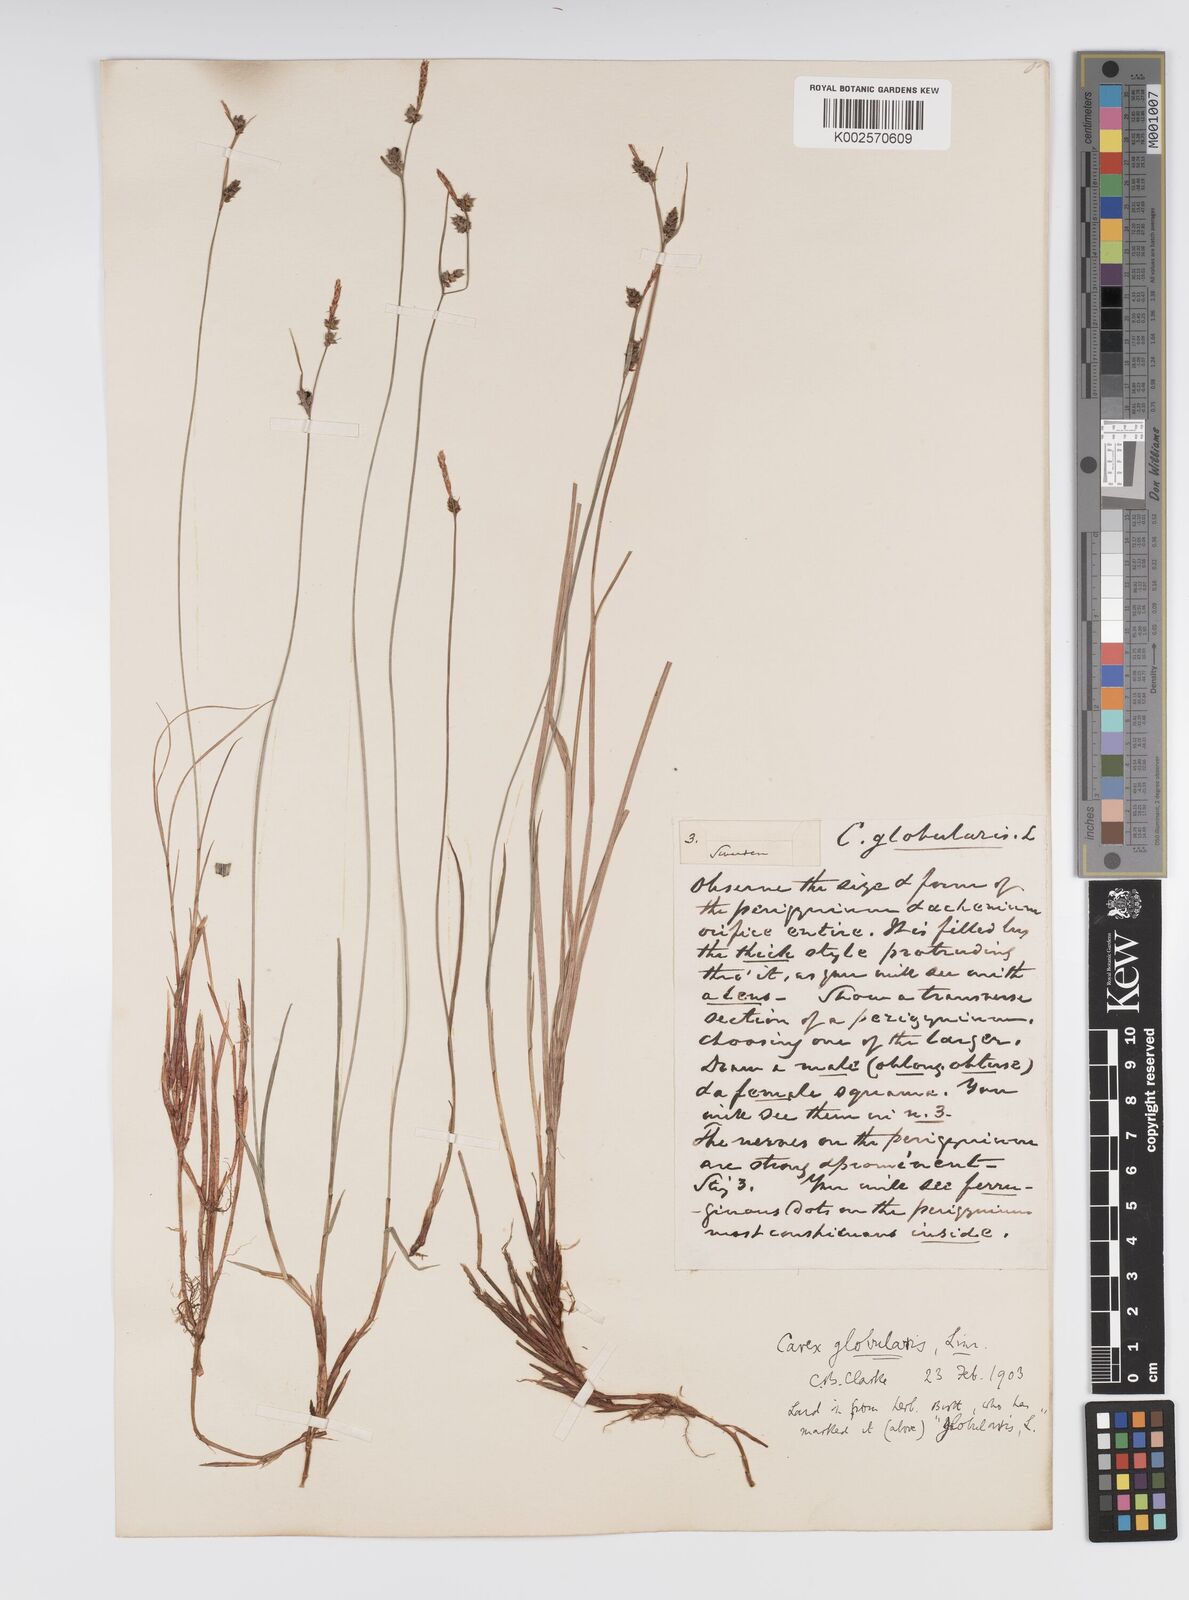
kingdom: Plantae
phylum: Tracheophyta
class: Liliopsida
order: Poales
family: Cyperaceae
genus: Carex
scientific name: Carex globularis
